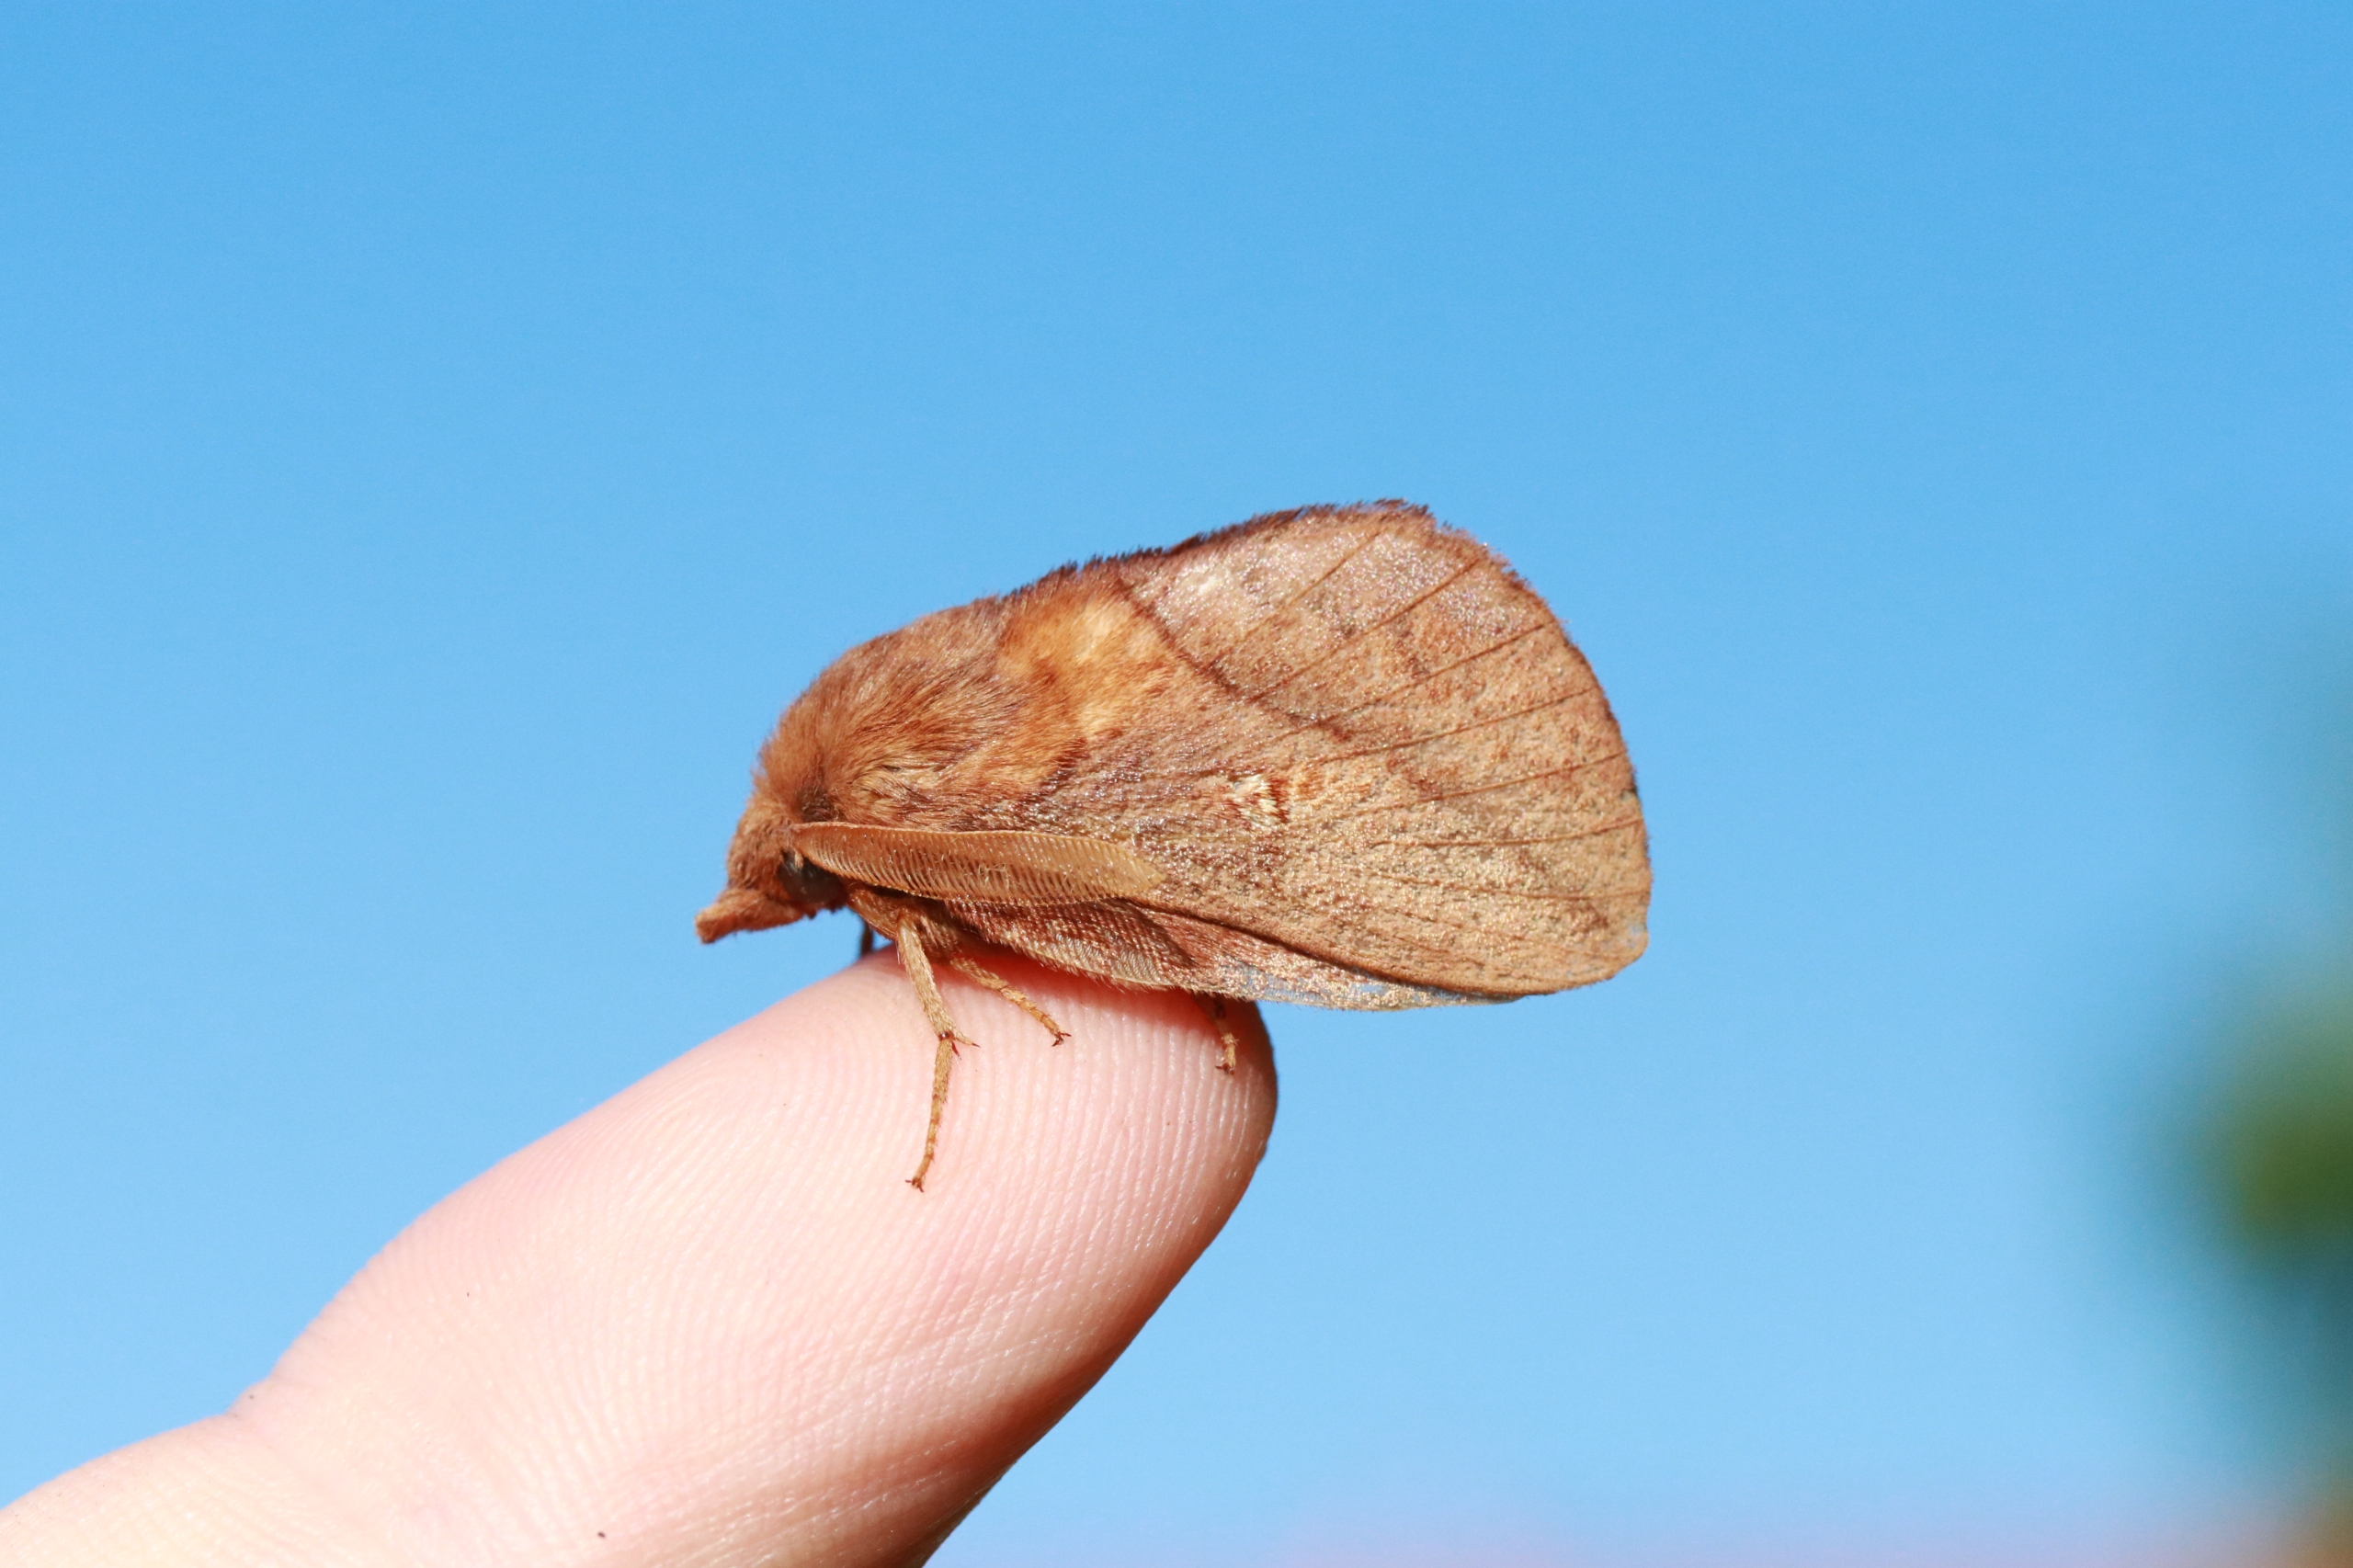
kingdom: Animalia
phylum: Arthropoda
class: Insecta
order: Lepidoptera
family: Lasiocampidae
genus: Euthrix
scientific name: Euthrix potatoria
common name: Græsspinder
